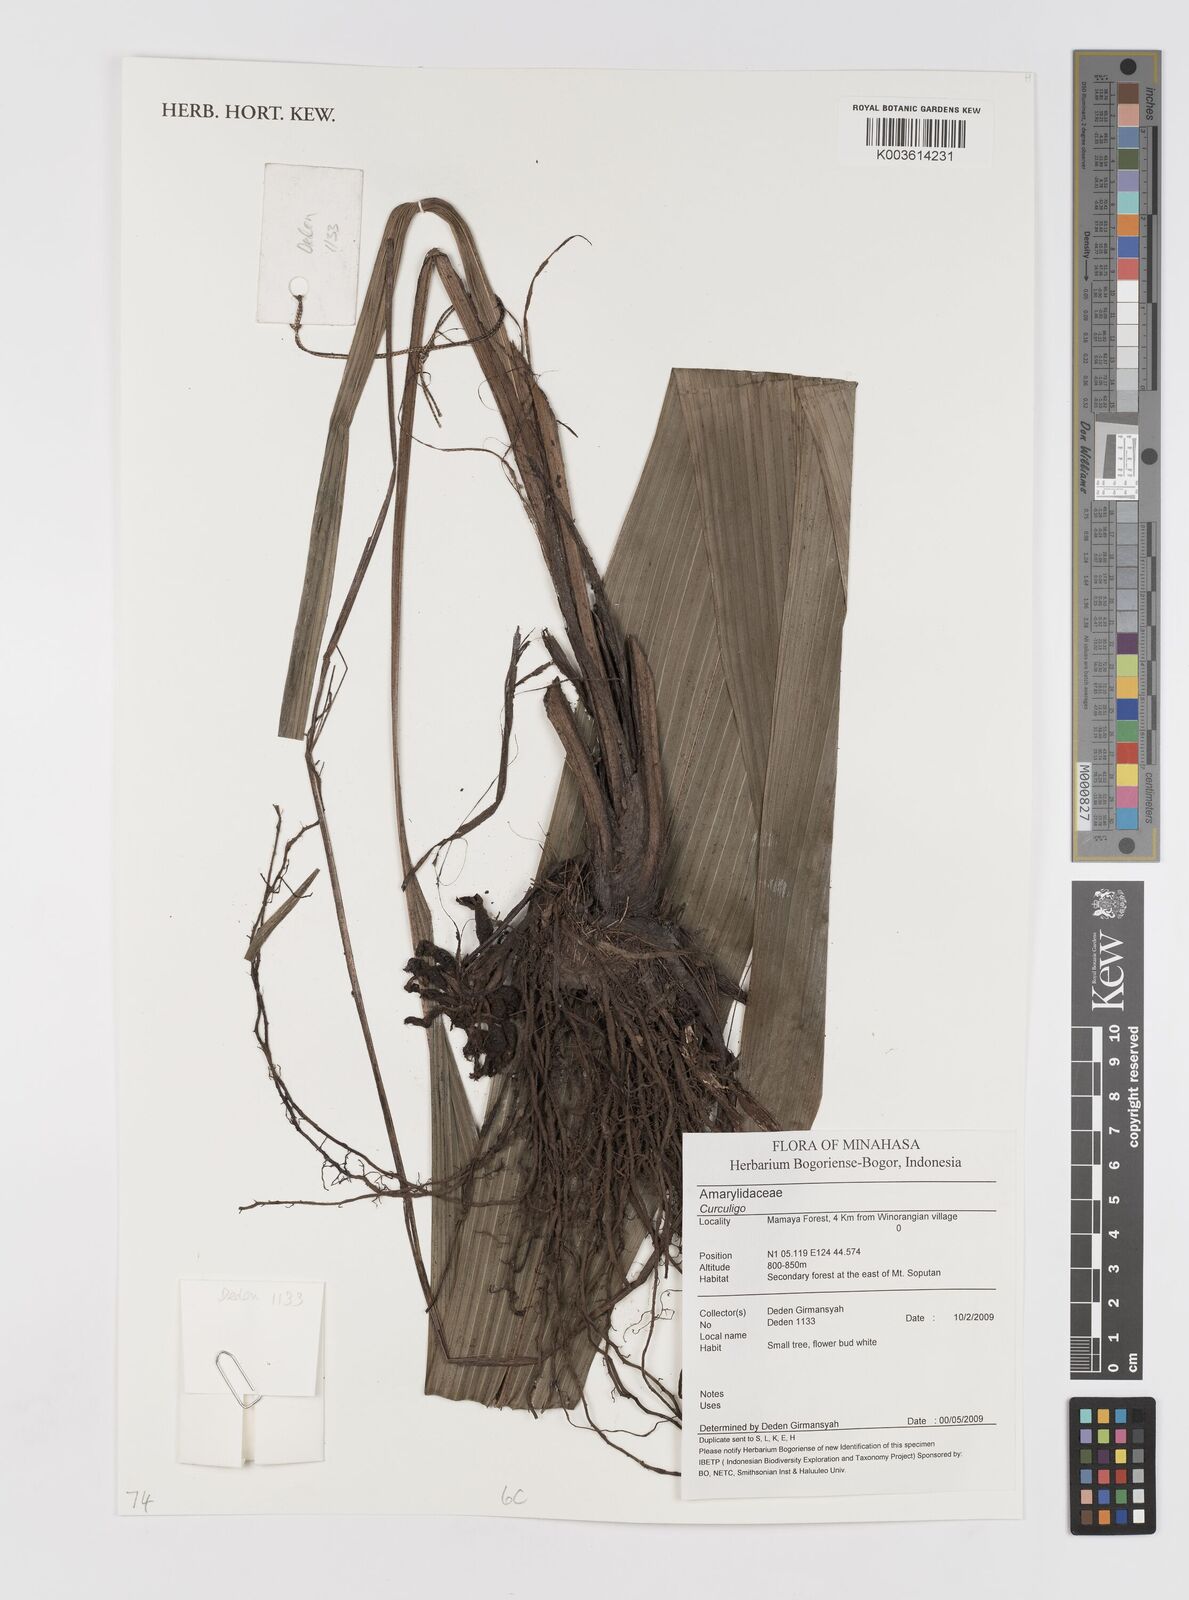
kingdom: Plantae
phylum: Tracheophyta
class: Liliopsida
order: Asparagales
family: Hypoxidaceae
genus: Curculigo
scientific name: Curculigo
